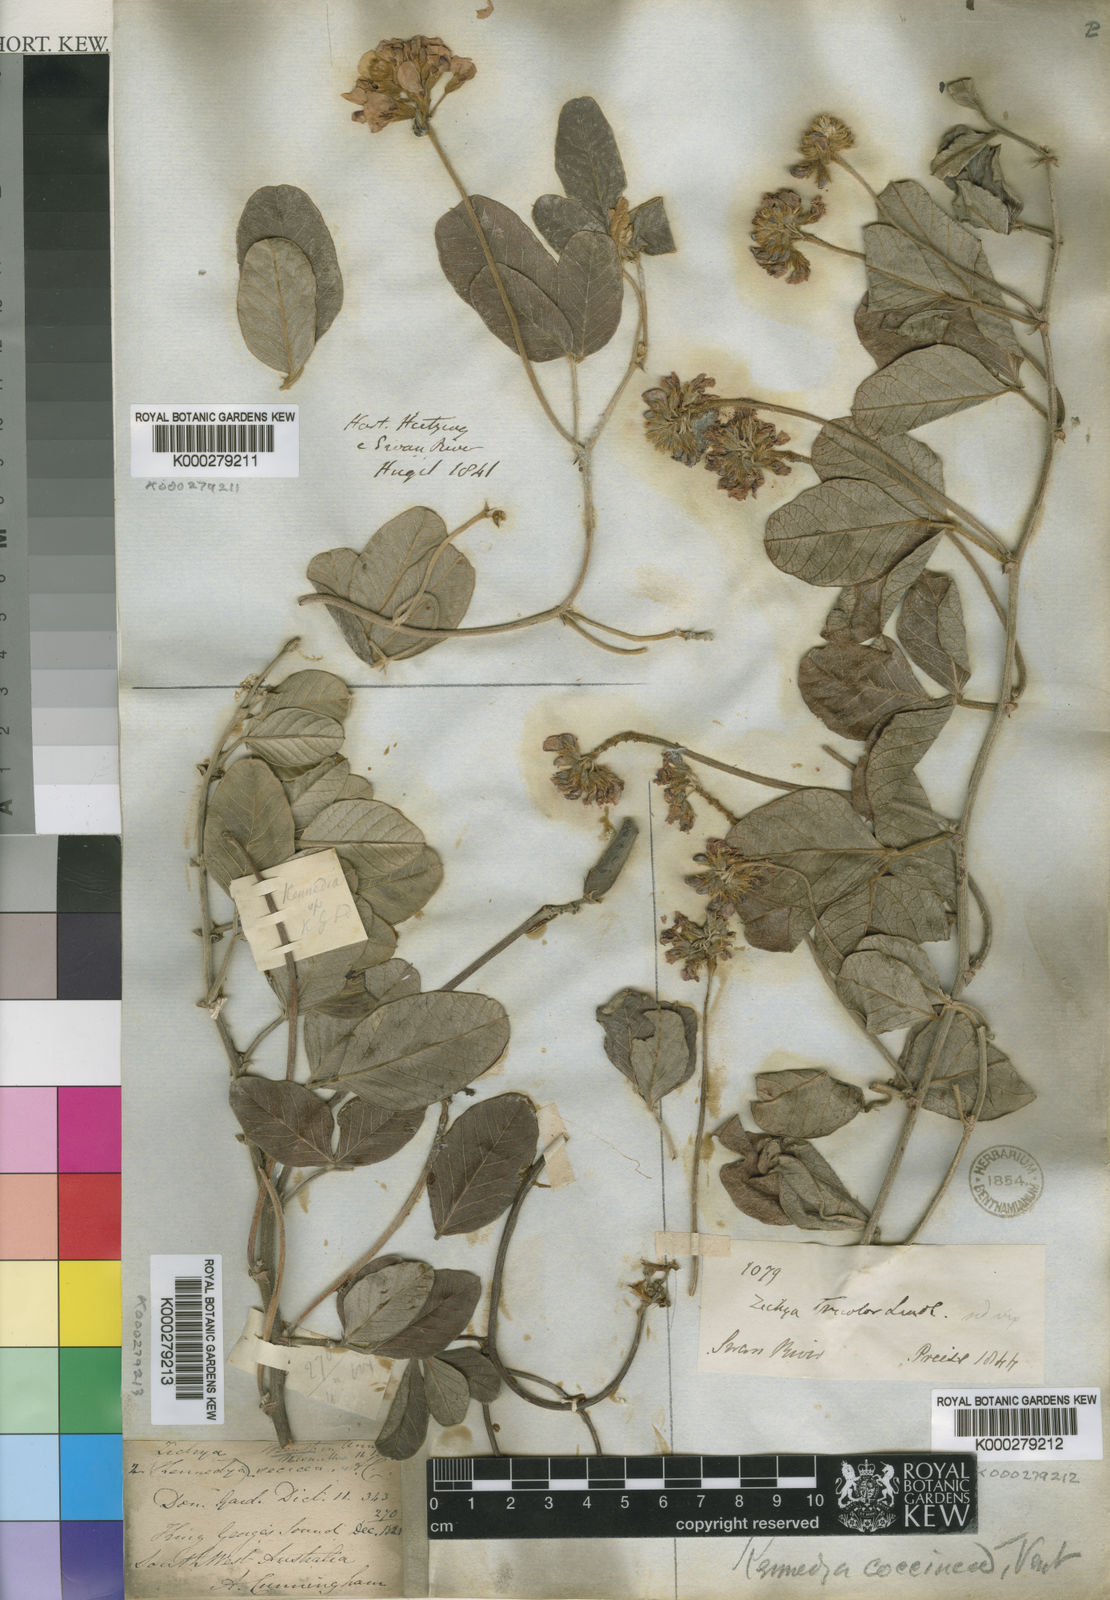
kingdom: Plantae
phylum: Tracheophyta
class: Magnoliopsida
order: Fabales
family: Fabaceae
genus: Kennedia
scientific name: Kennedia coccinea
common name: Coralvine
